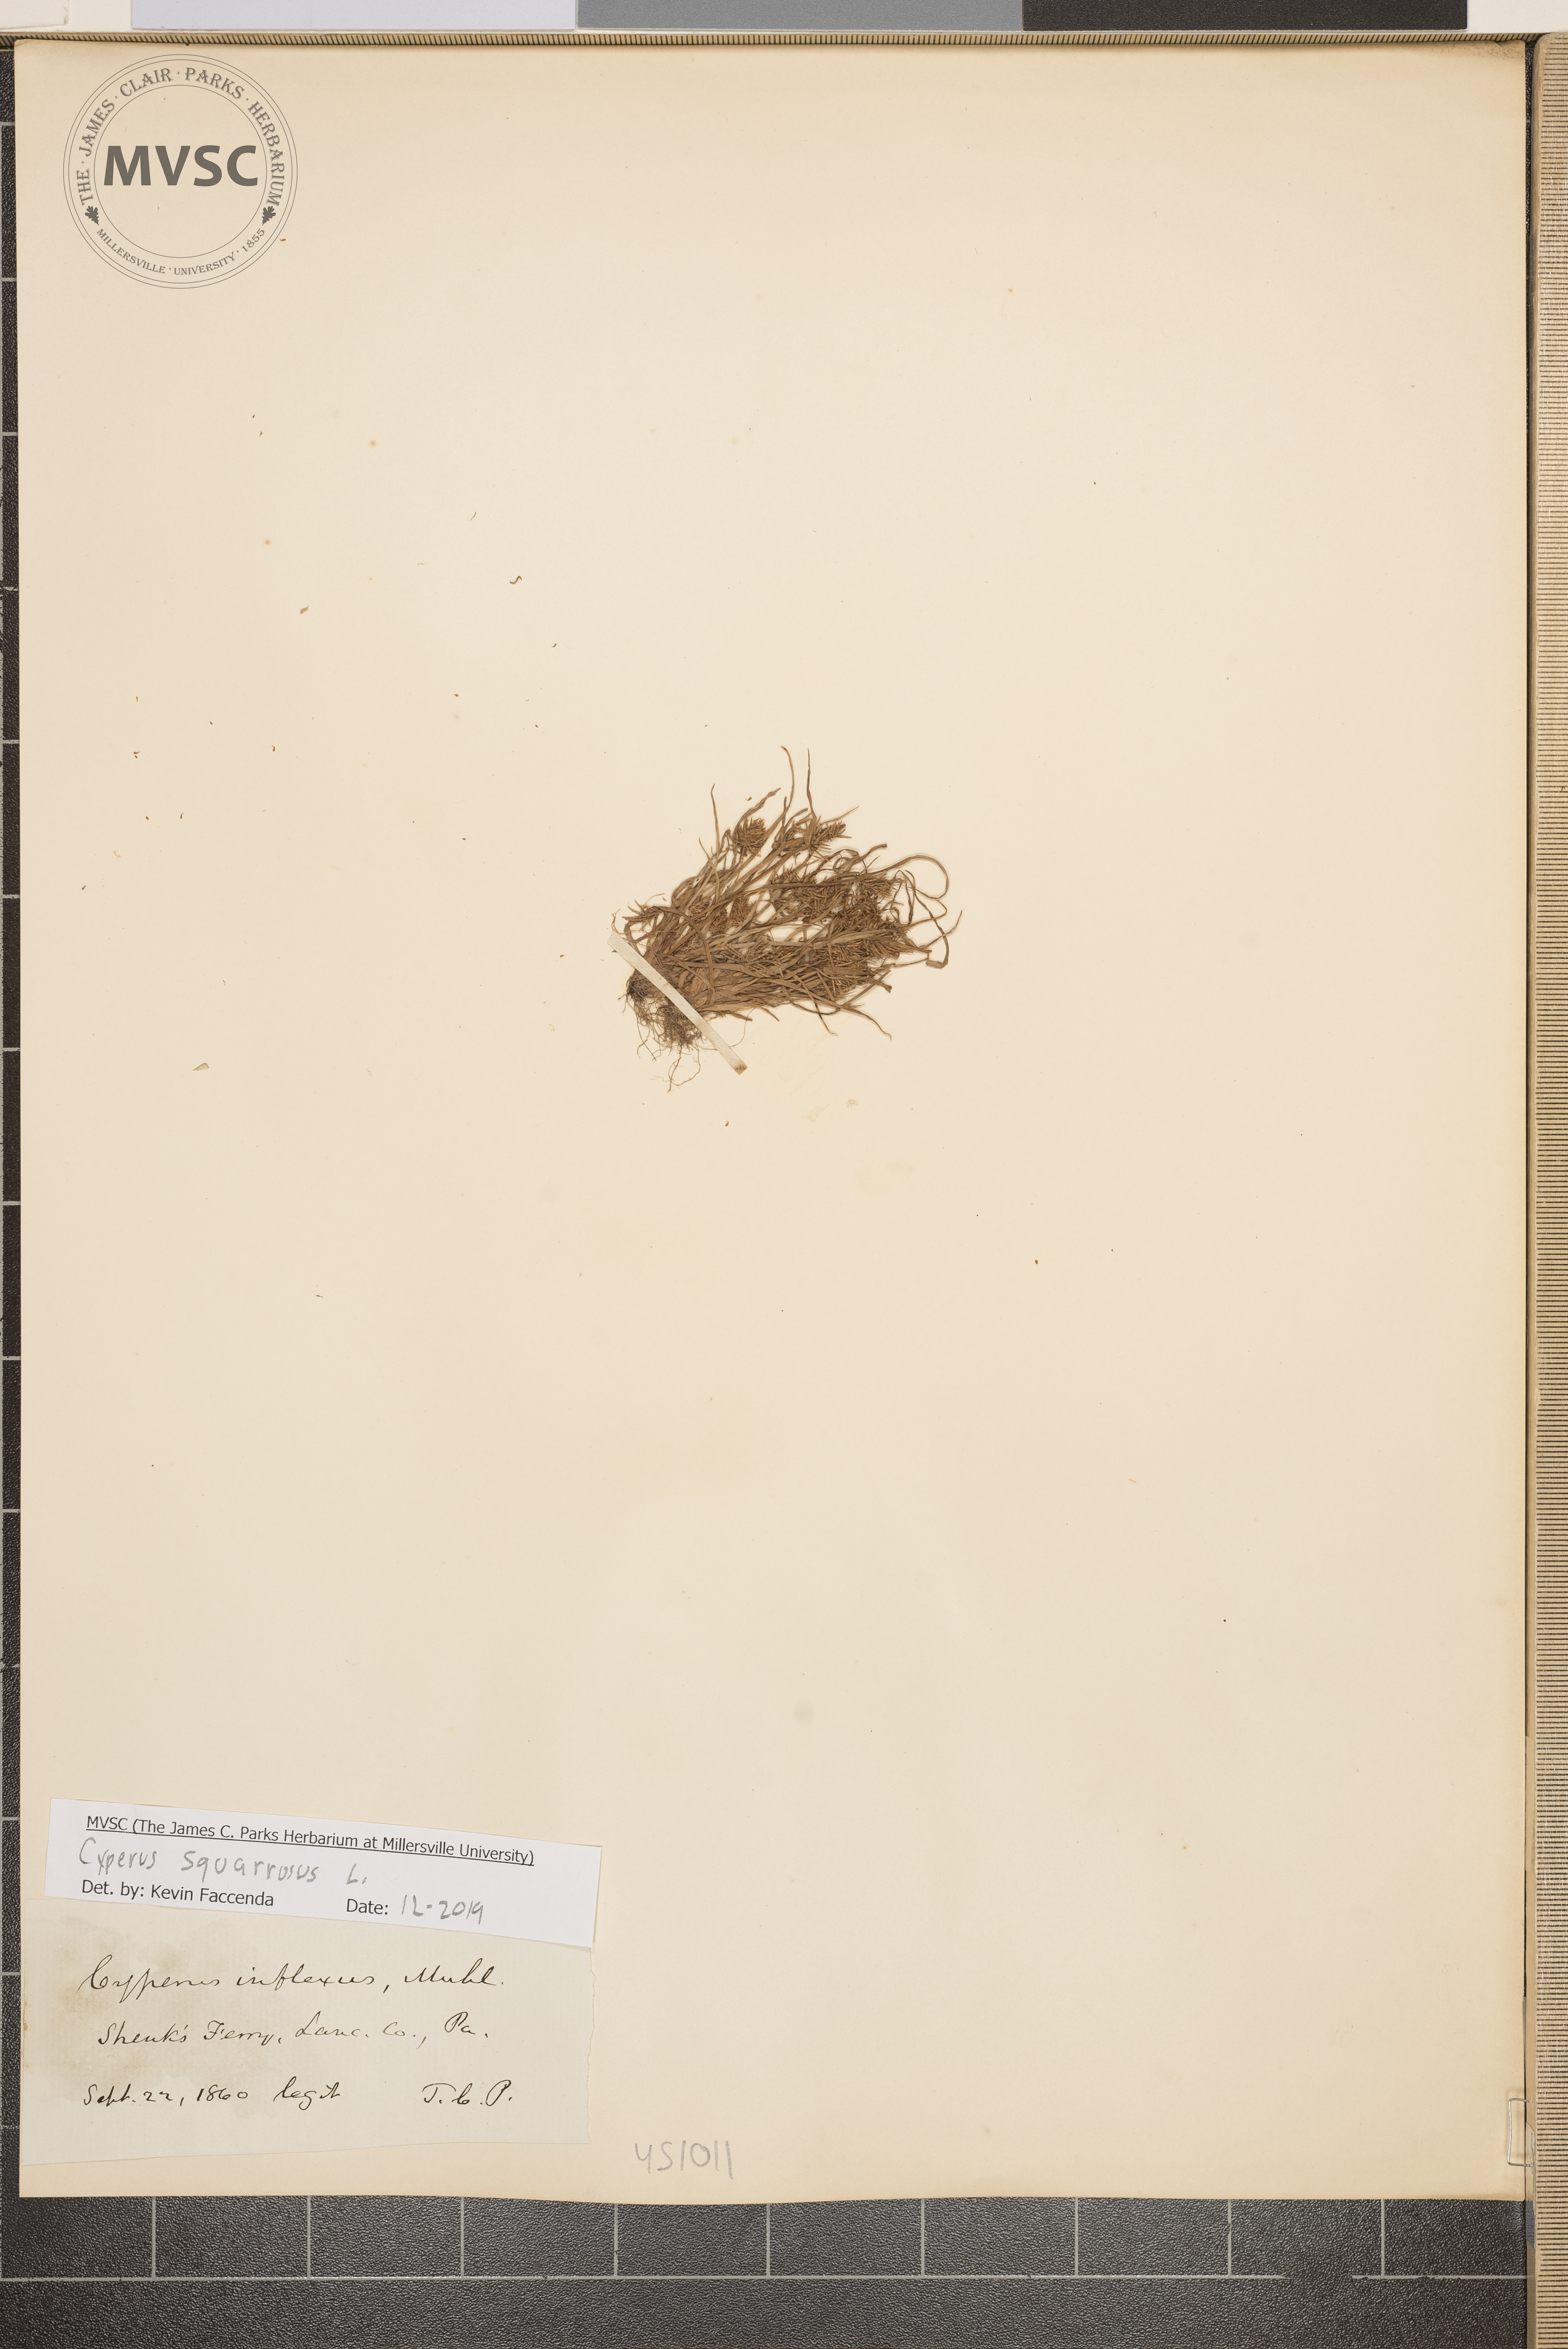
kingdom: Plantae
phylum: Tracheophyta
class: Liliopsida
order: Poales
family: Cyperaceae
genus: Cyperus
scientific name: Cyperus squarrosus
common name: Awned cyperus
